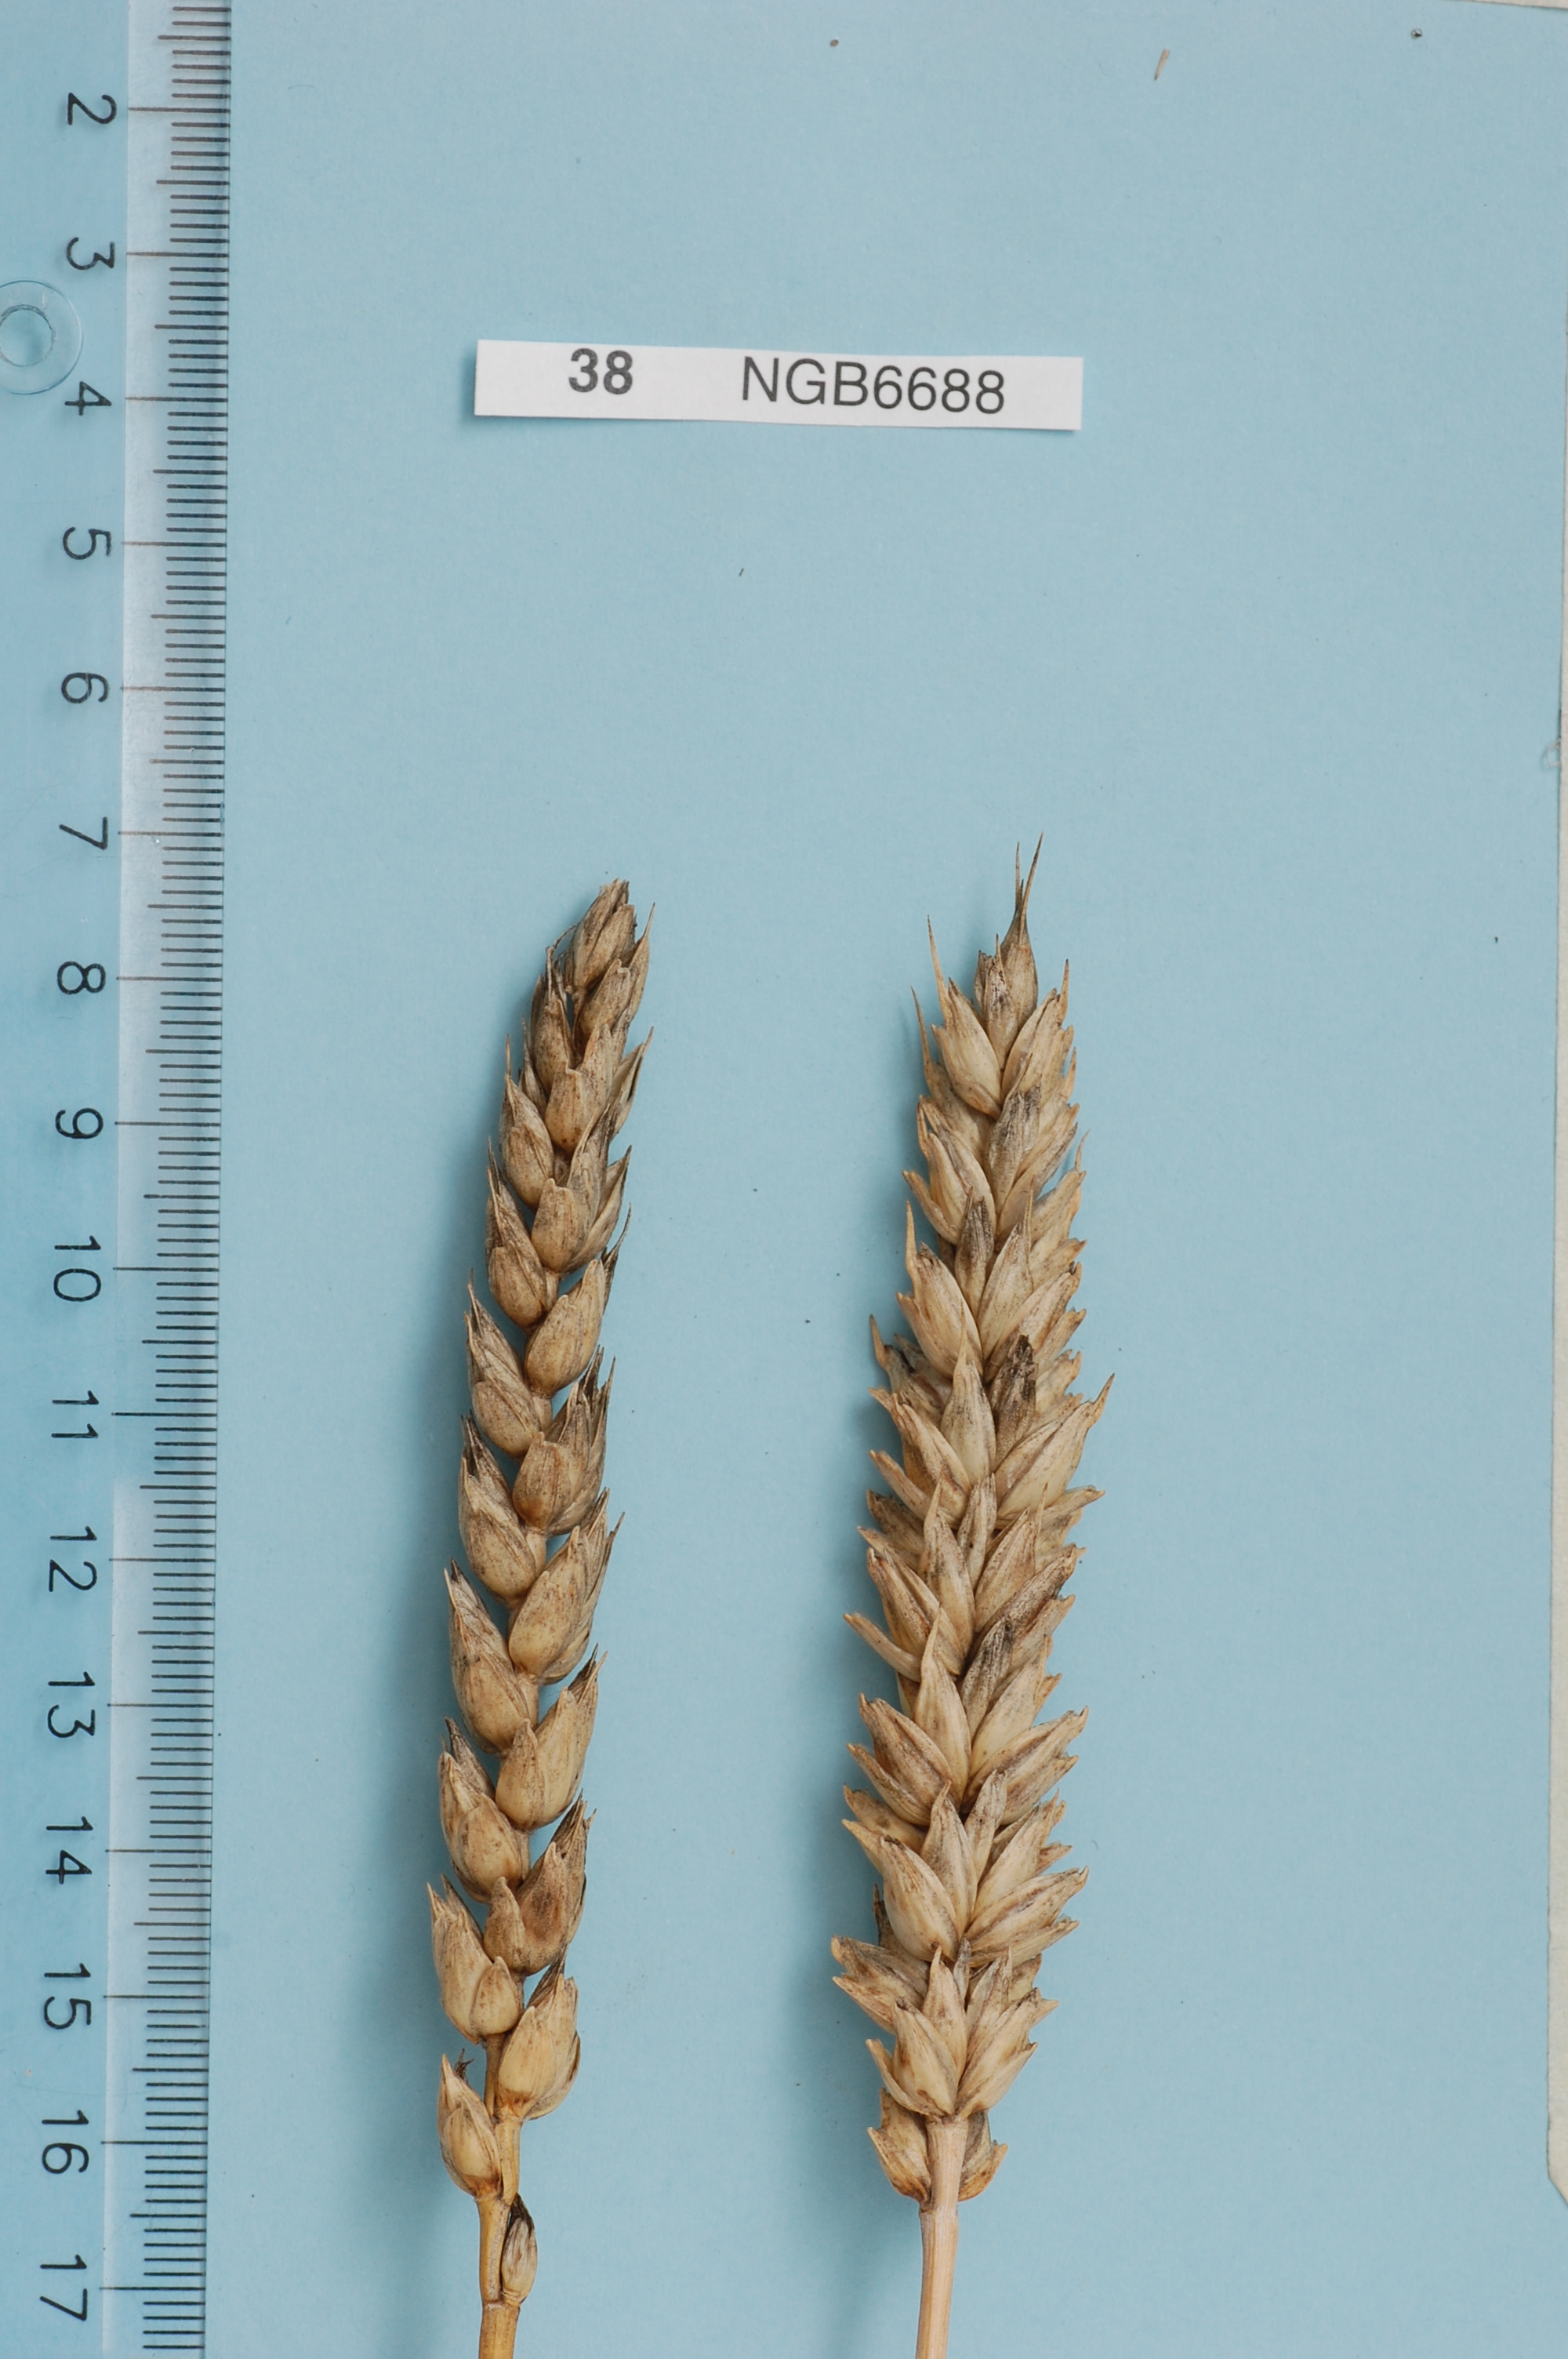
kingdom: Plantae
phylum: Tracheophyta
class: Liliopsida
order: Poales
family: Poaceae
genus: Triticum
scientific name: Triticum aestivum
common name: Common wheat
